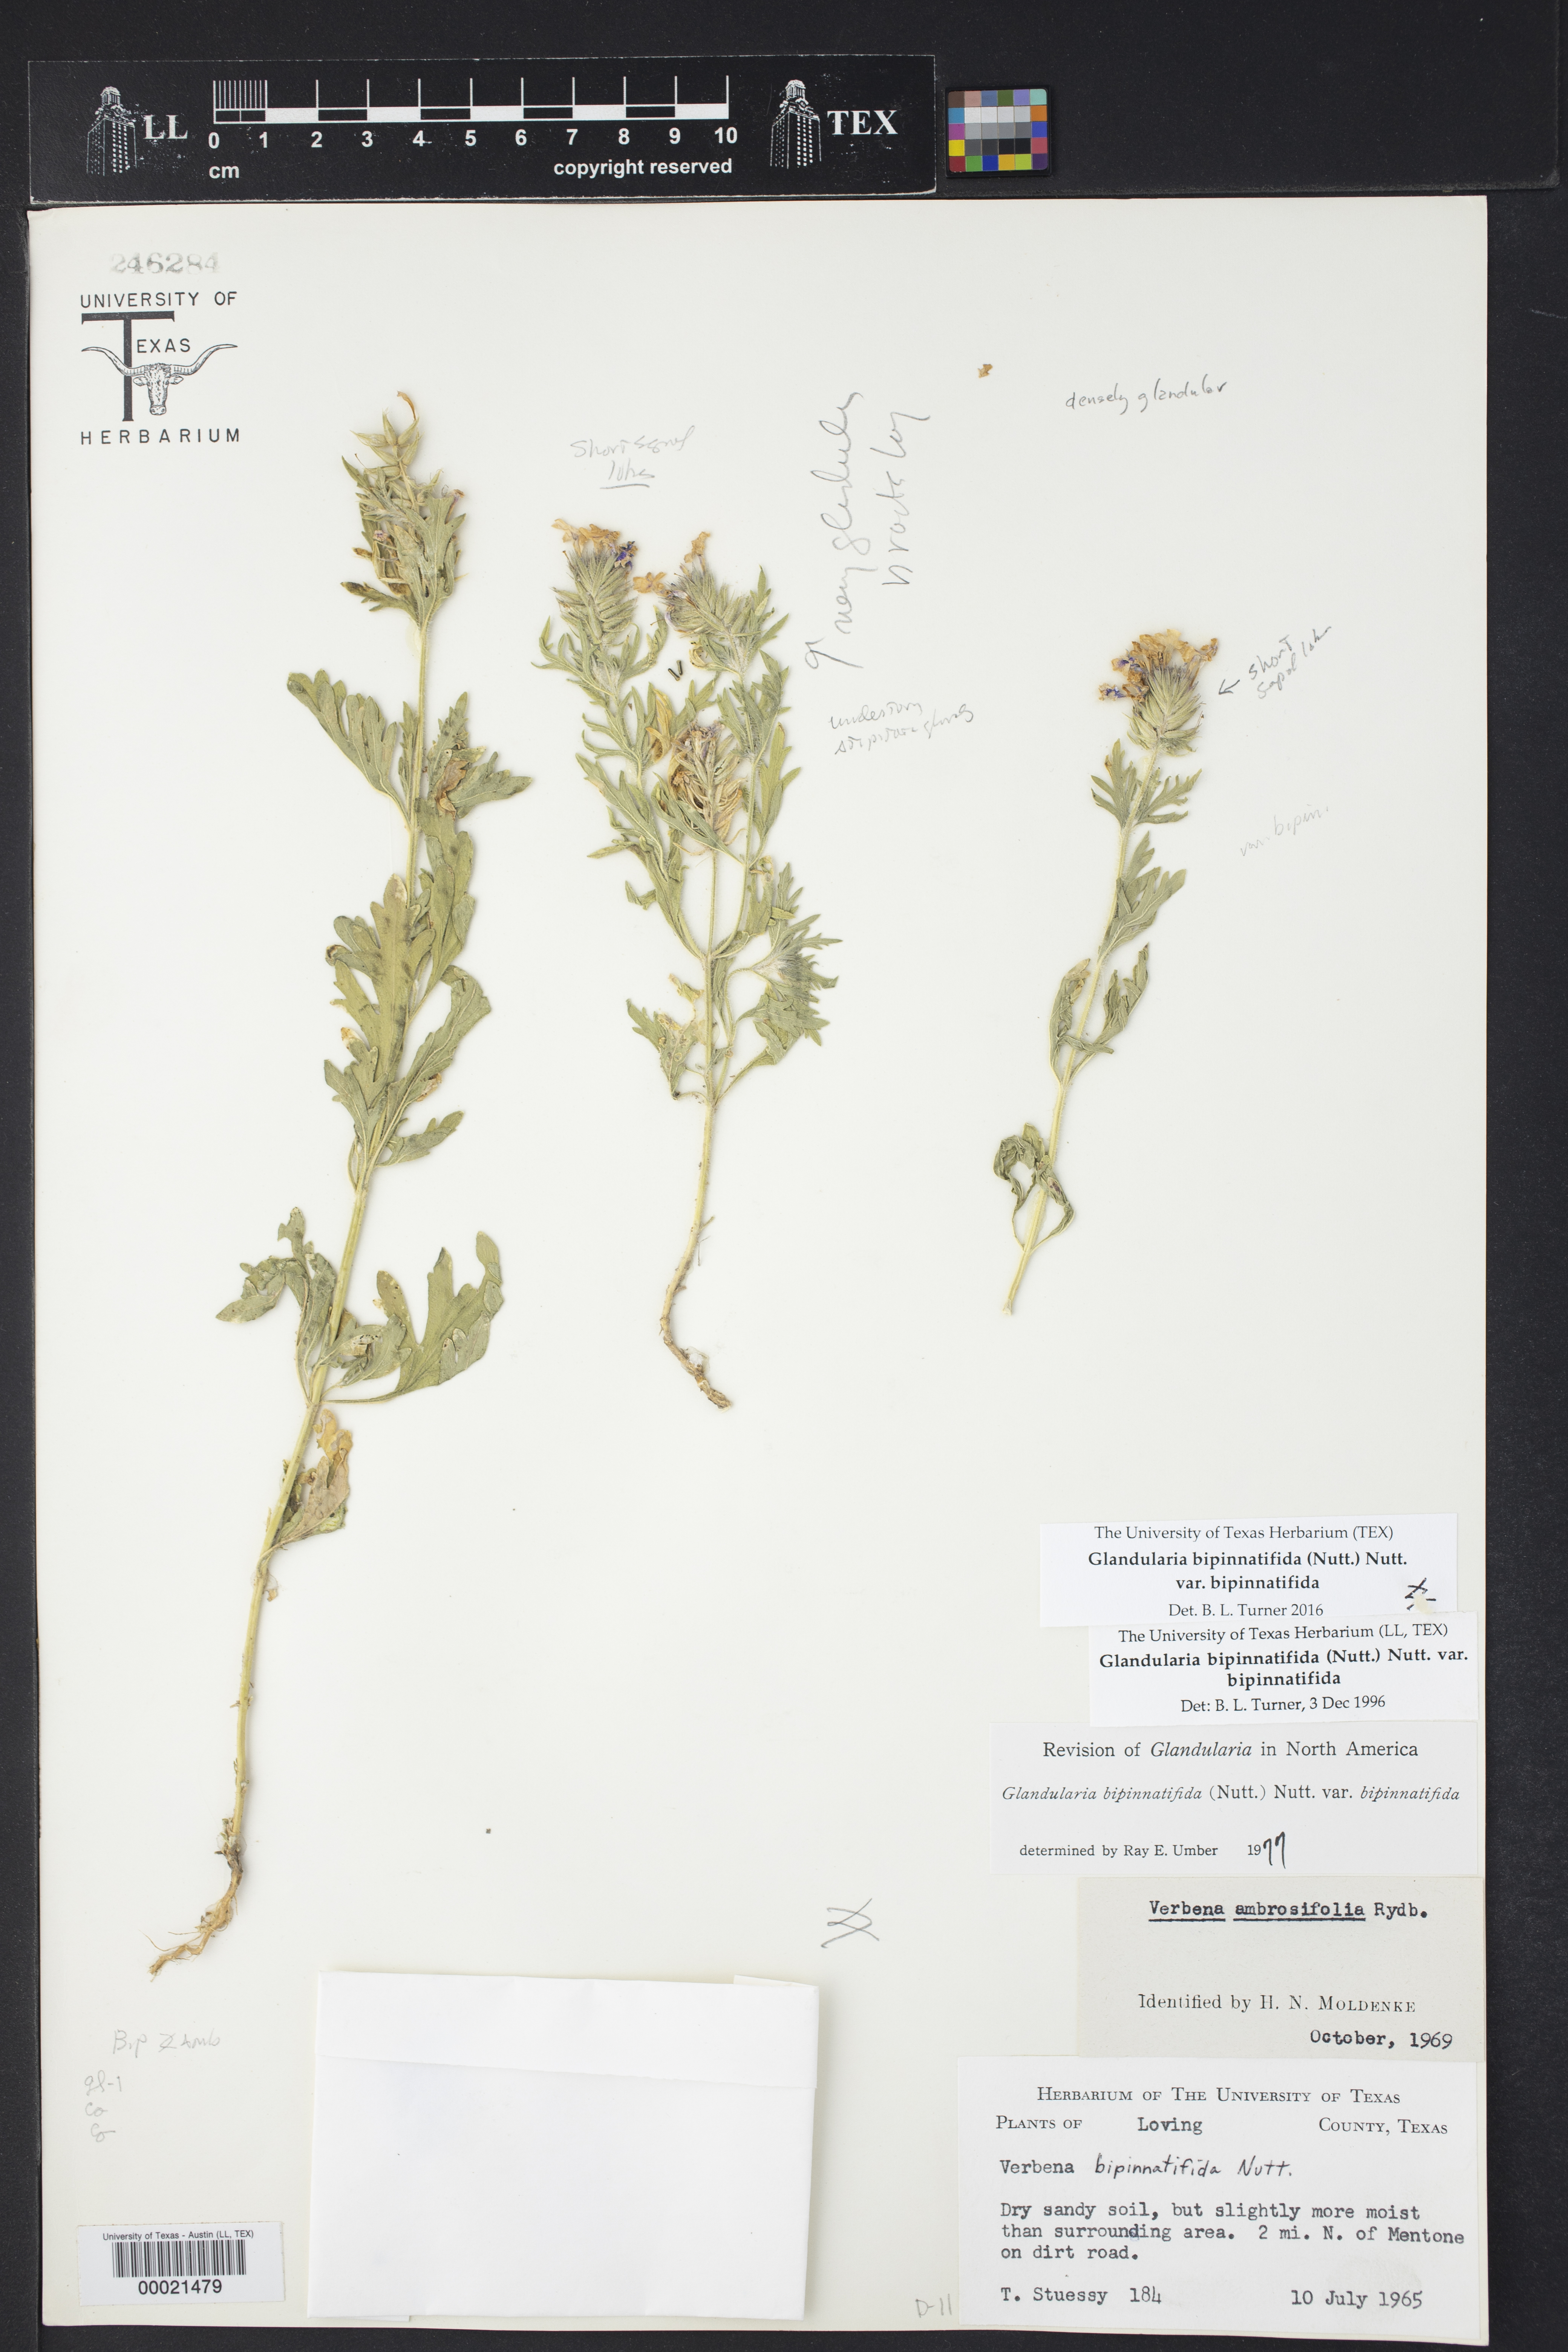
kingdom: Plantae
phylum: Tracheophyta
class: Magnoliopsida
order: Lamiales
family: Verbenaceae
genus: Verbena
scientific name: Verbena bipinnatifida
